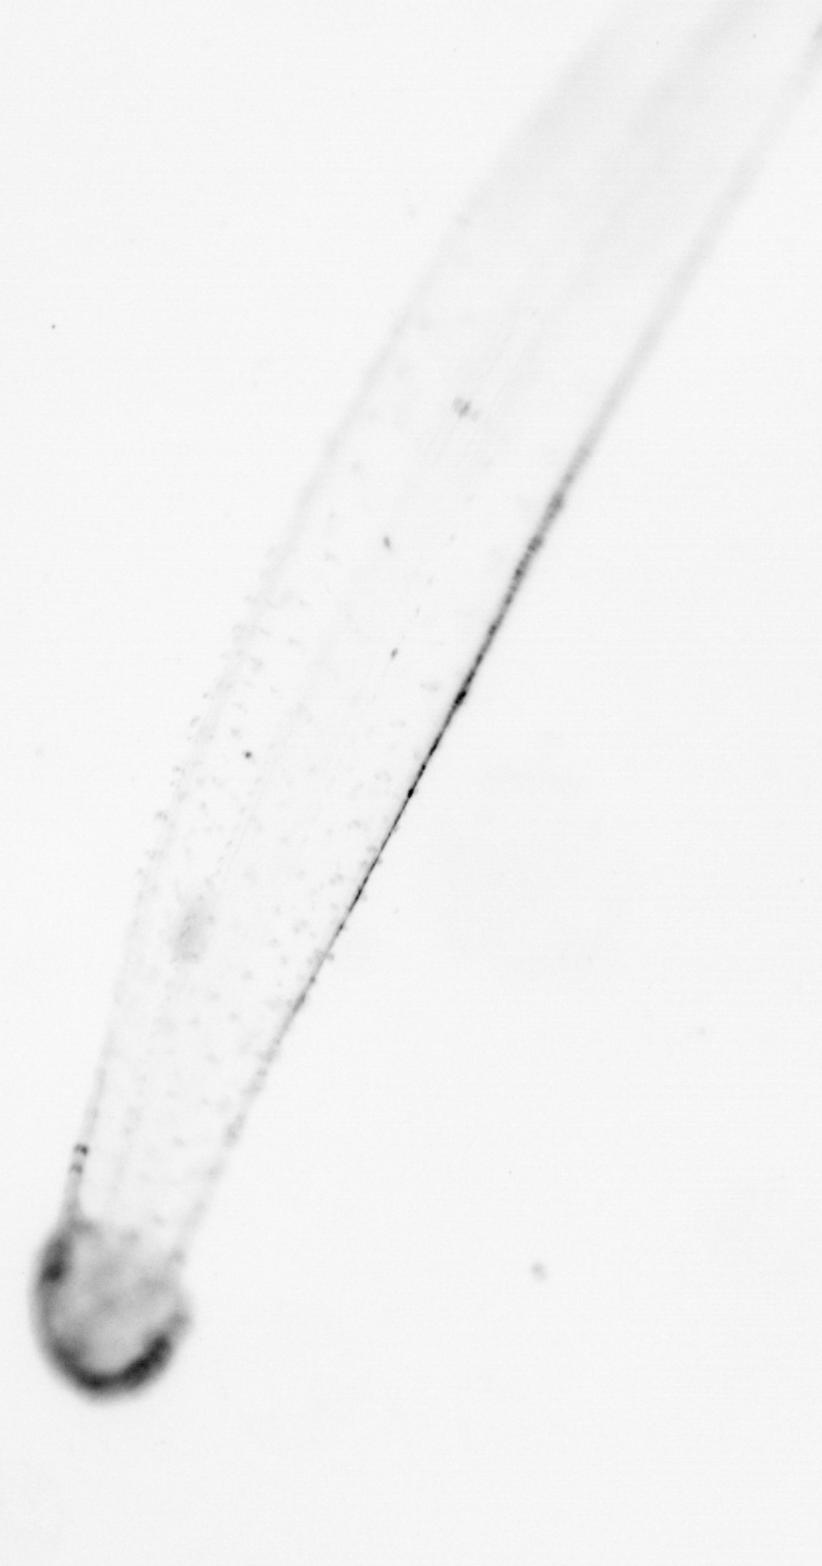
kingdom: Animalia
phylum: Chaetognatha
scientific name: Chaetognatha
